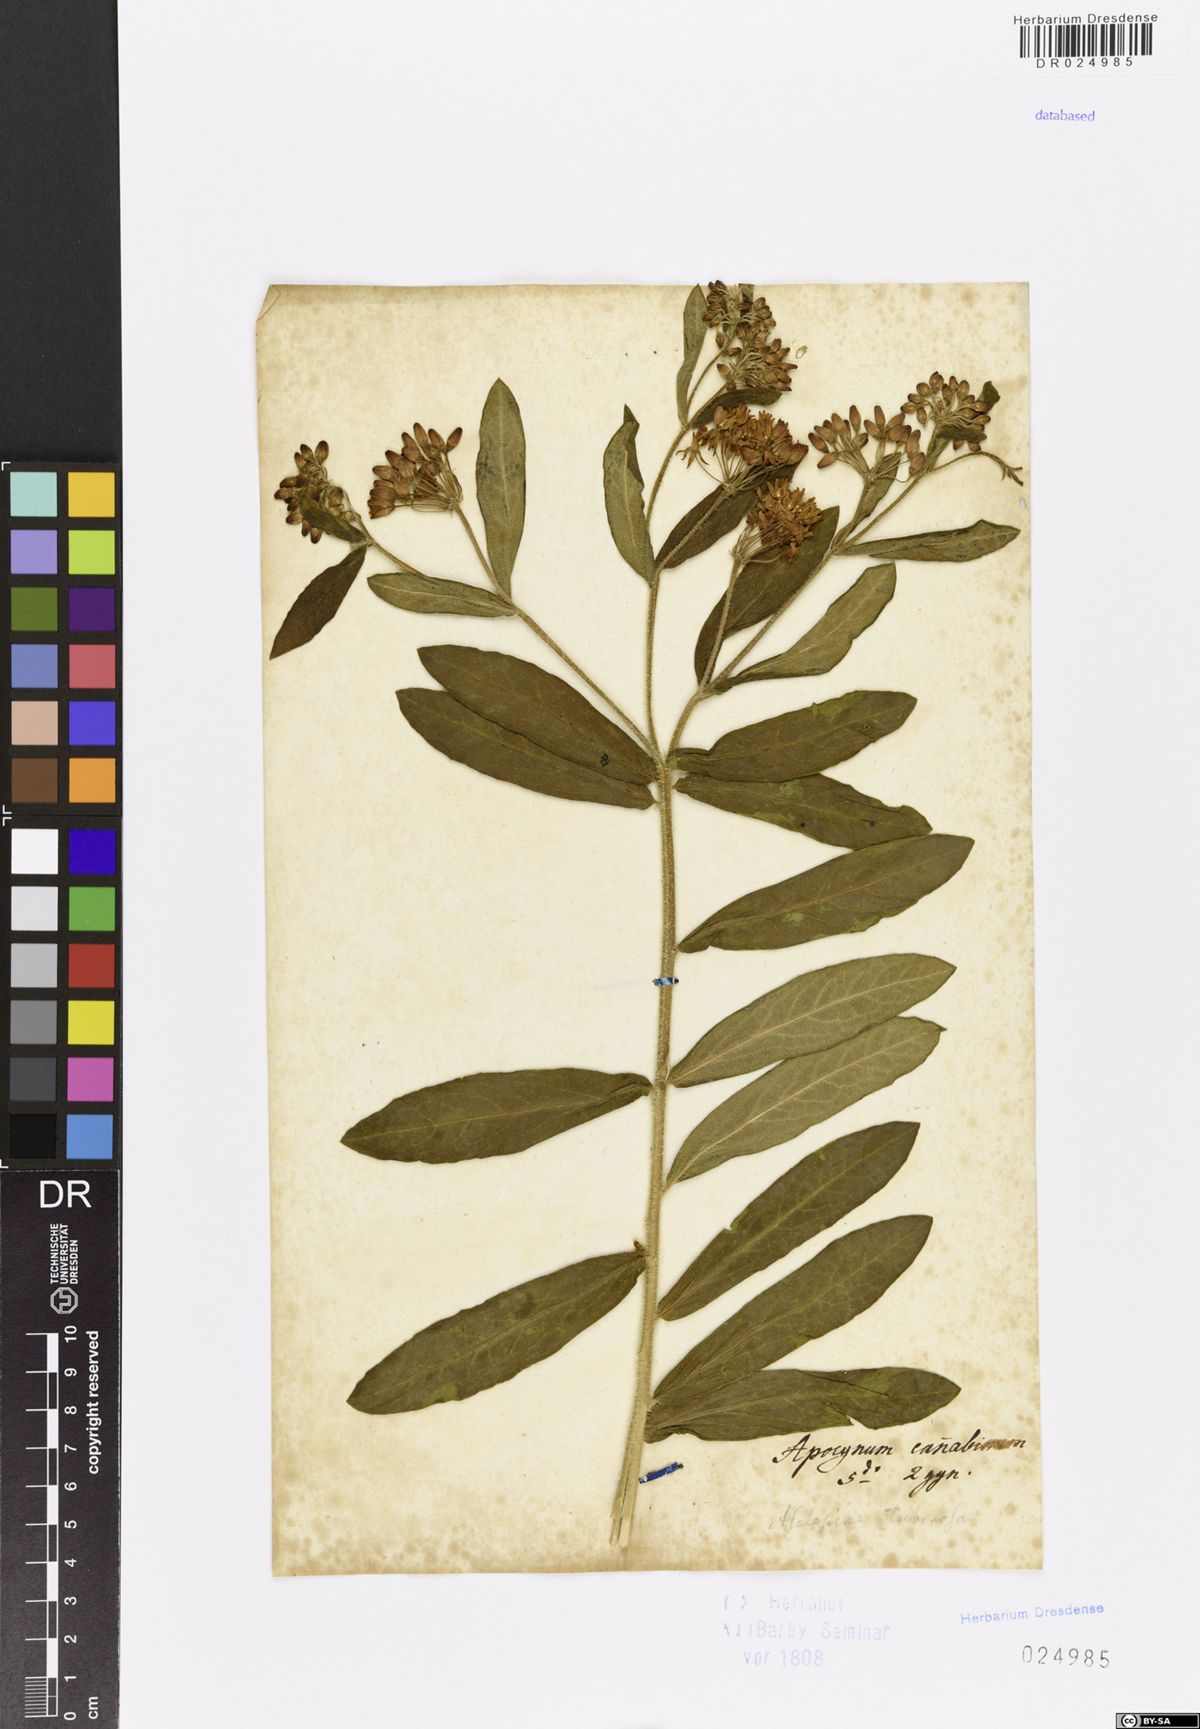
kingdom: Plantae
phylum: Tracheophyta
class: Magnoliopsida
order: Gentianales
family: Apocynaceae
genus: Asclepias
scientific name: Asclepias tuberosa
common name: Butterfly milkweed
